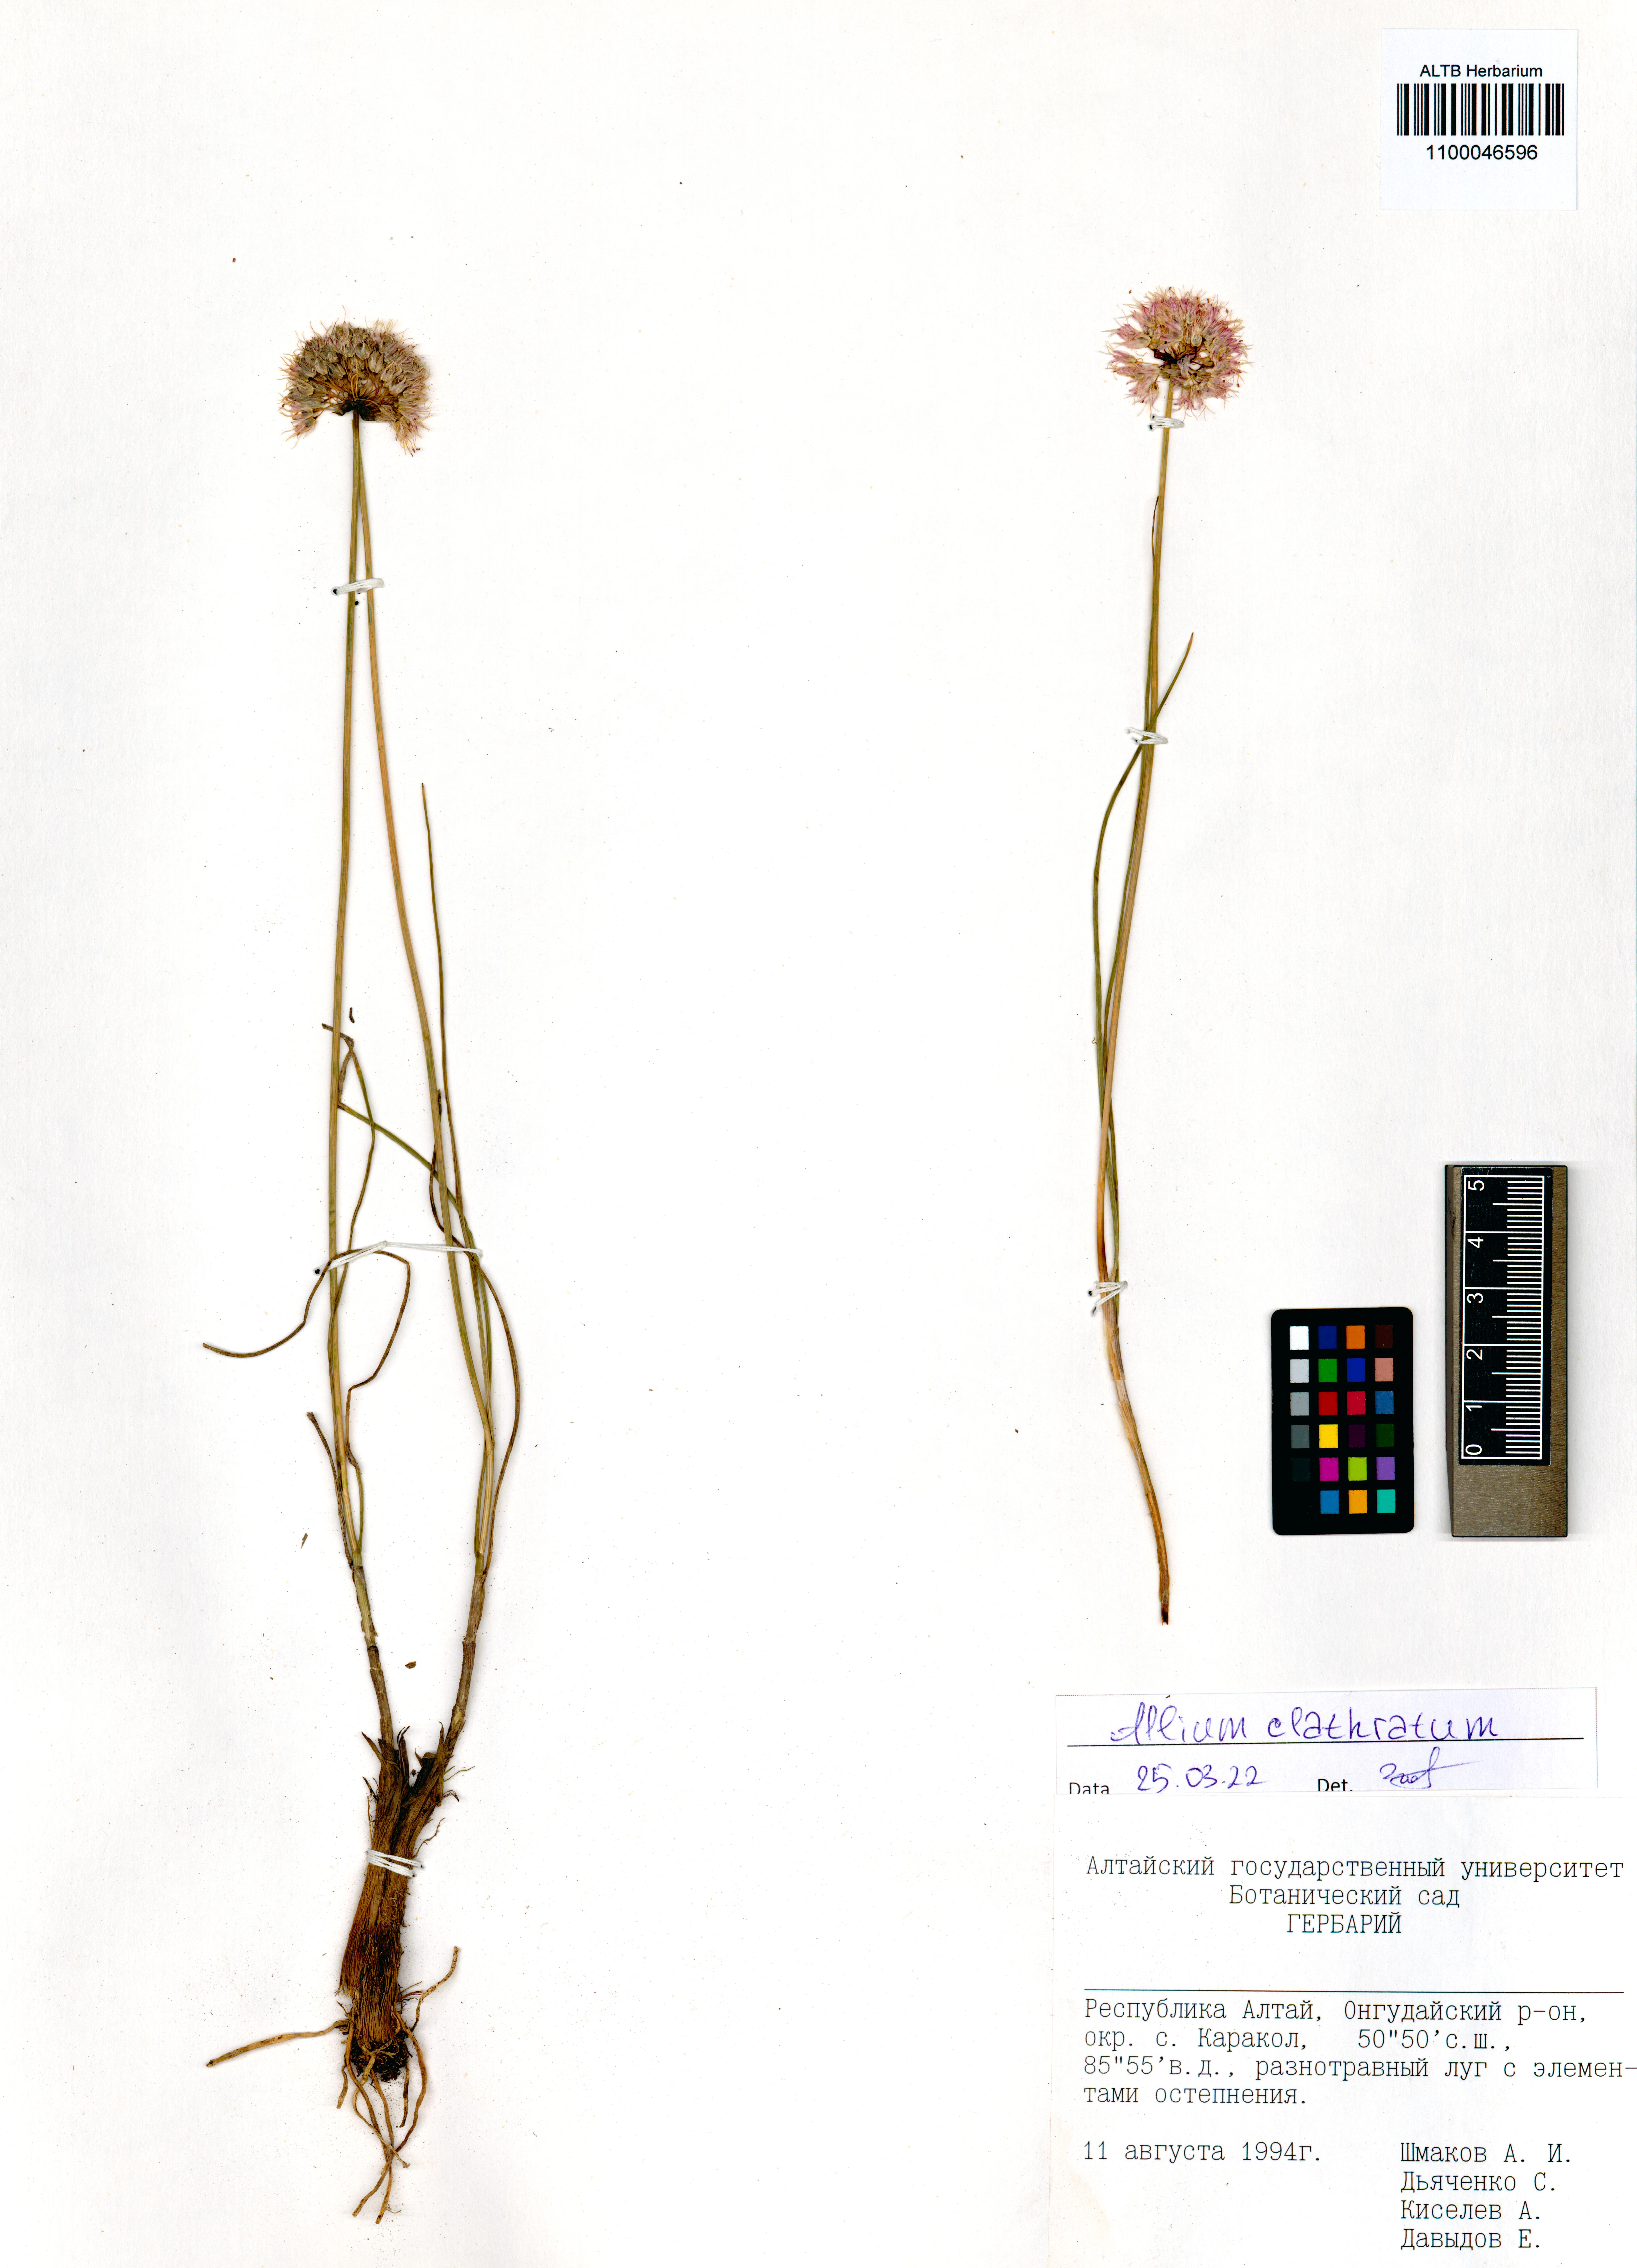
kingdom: Plantae
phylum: Tracheophyta
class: Liliopsida
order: Asparagales
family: Amaryllidaceae
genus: Allium
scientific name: Allium clathratum
